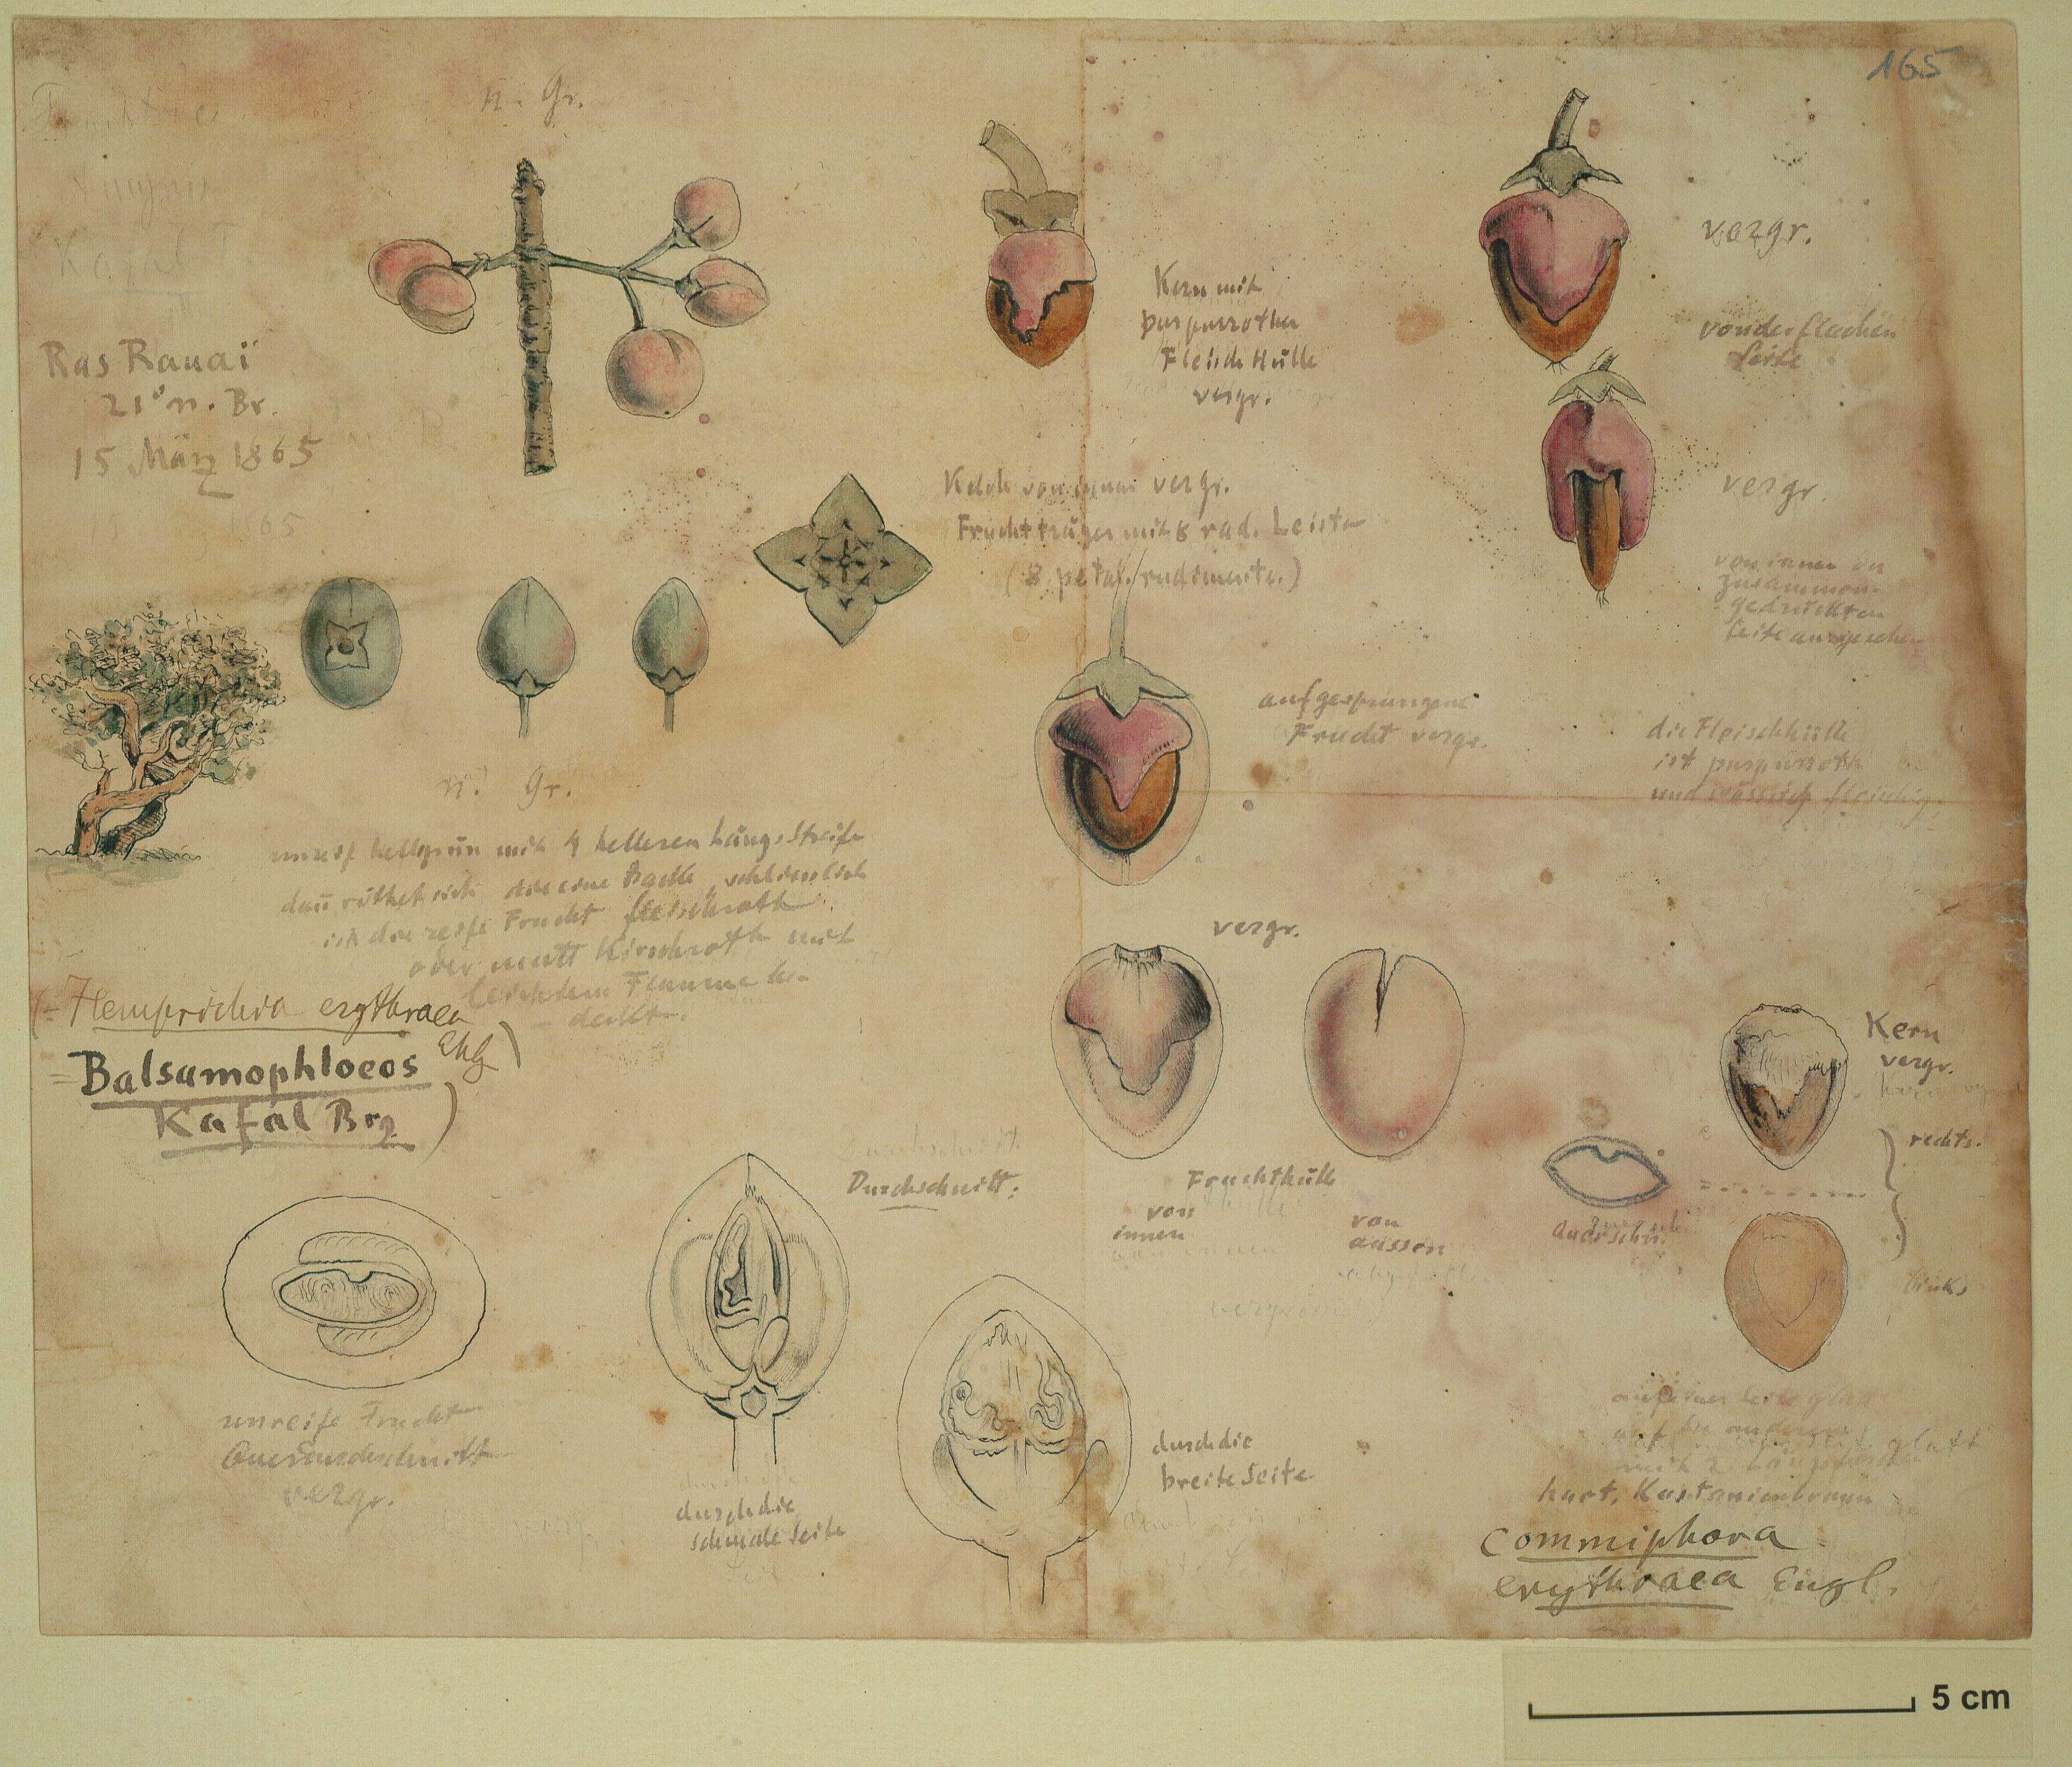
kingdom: Plantae
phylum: Tracheophyta
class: Magnoliopsida
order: Sapindales
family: Burseraceae
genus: Commiphora
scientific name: Commiphora kataf
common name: Bisabol myrrh
